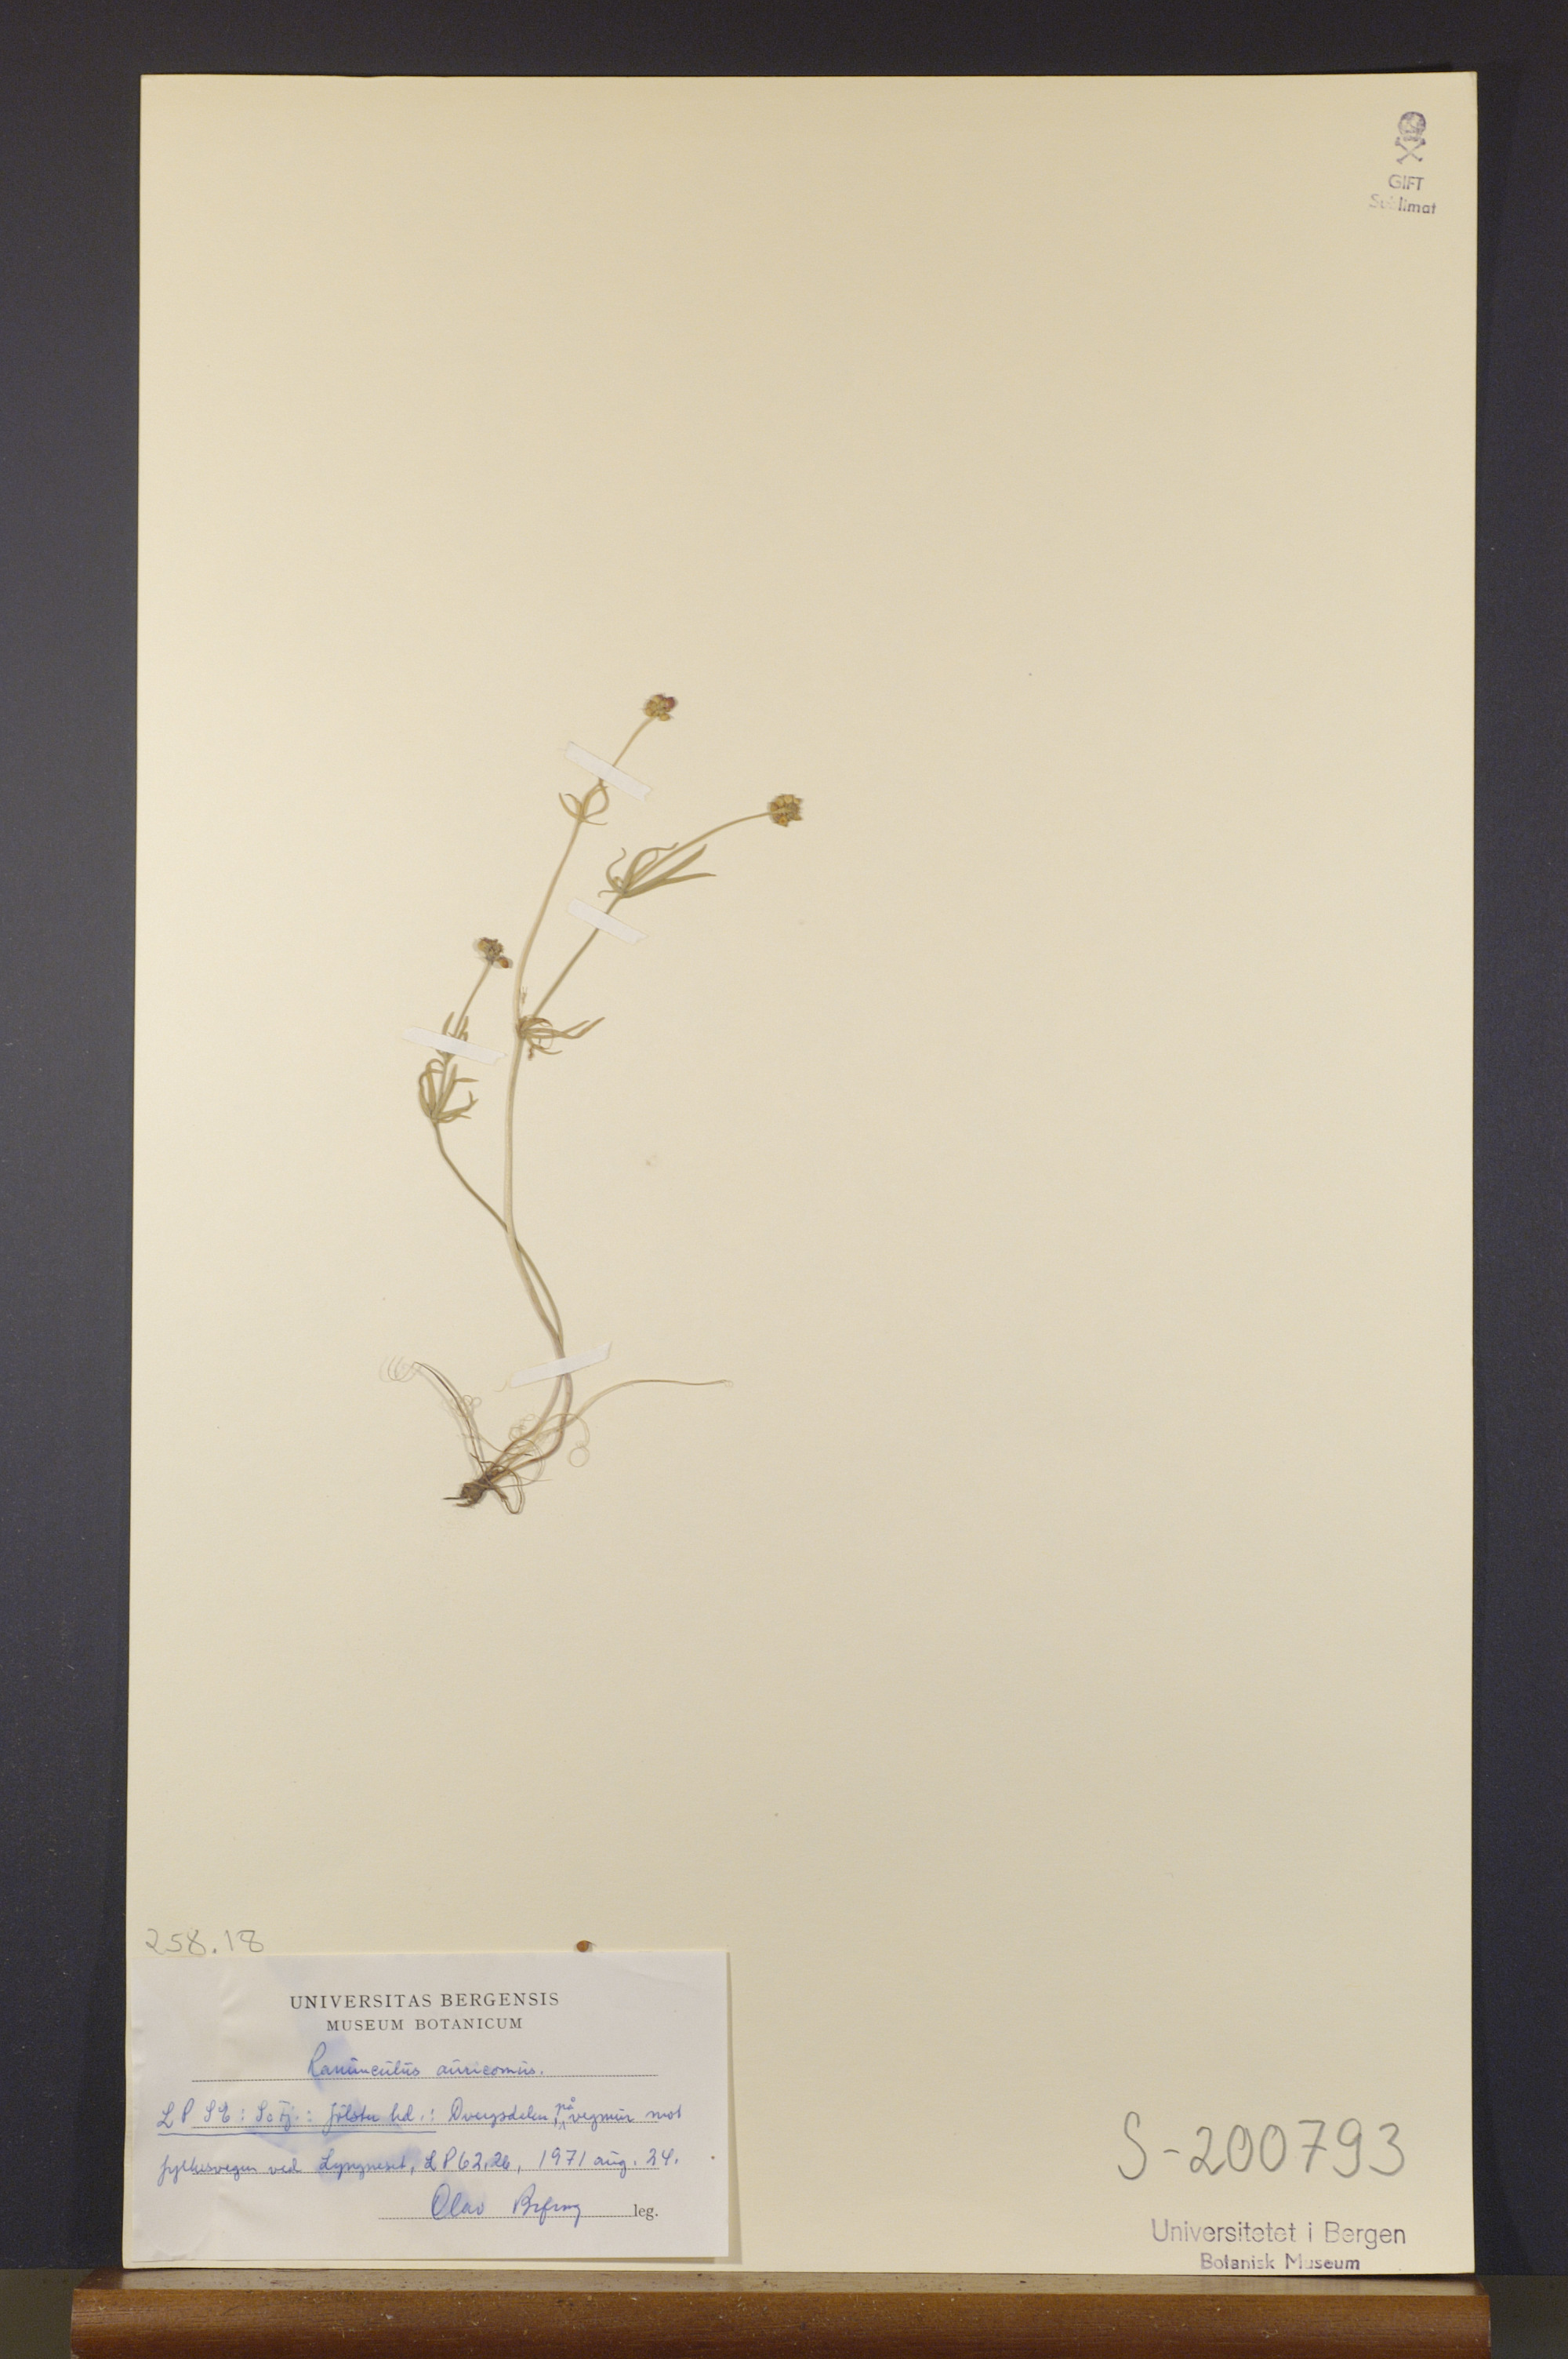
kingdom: Plantae
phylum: Tracheophyta
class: Magnoliopsida
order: Ranunculales
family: Ranunculaceae
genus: Ranunculus
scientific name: Ranunculus auricomus
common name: Goldilocks buttercup
